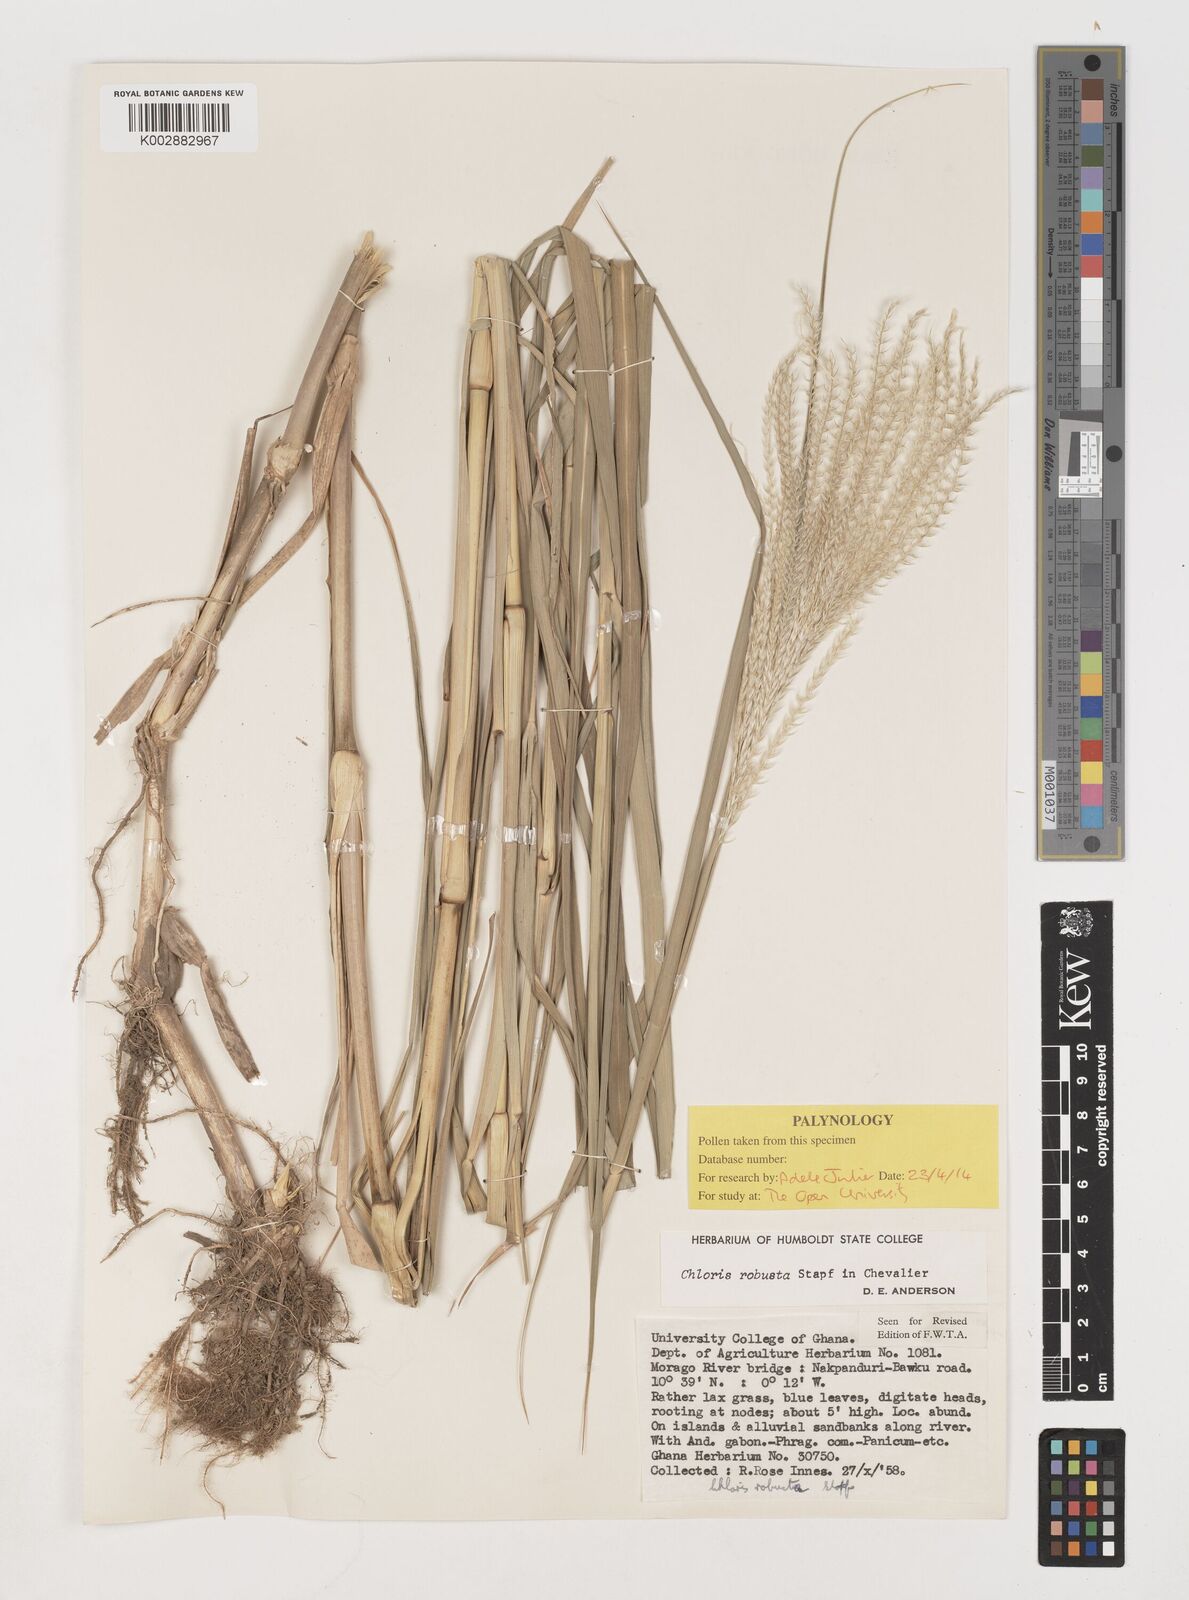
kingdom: Plantae
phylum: Tracheophyta
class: Liliopsida
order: Poales
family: Poaceae
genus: Chloris
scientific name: Chloris robusta
